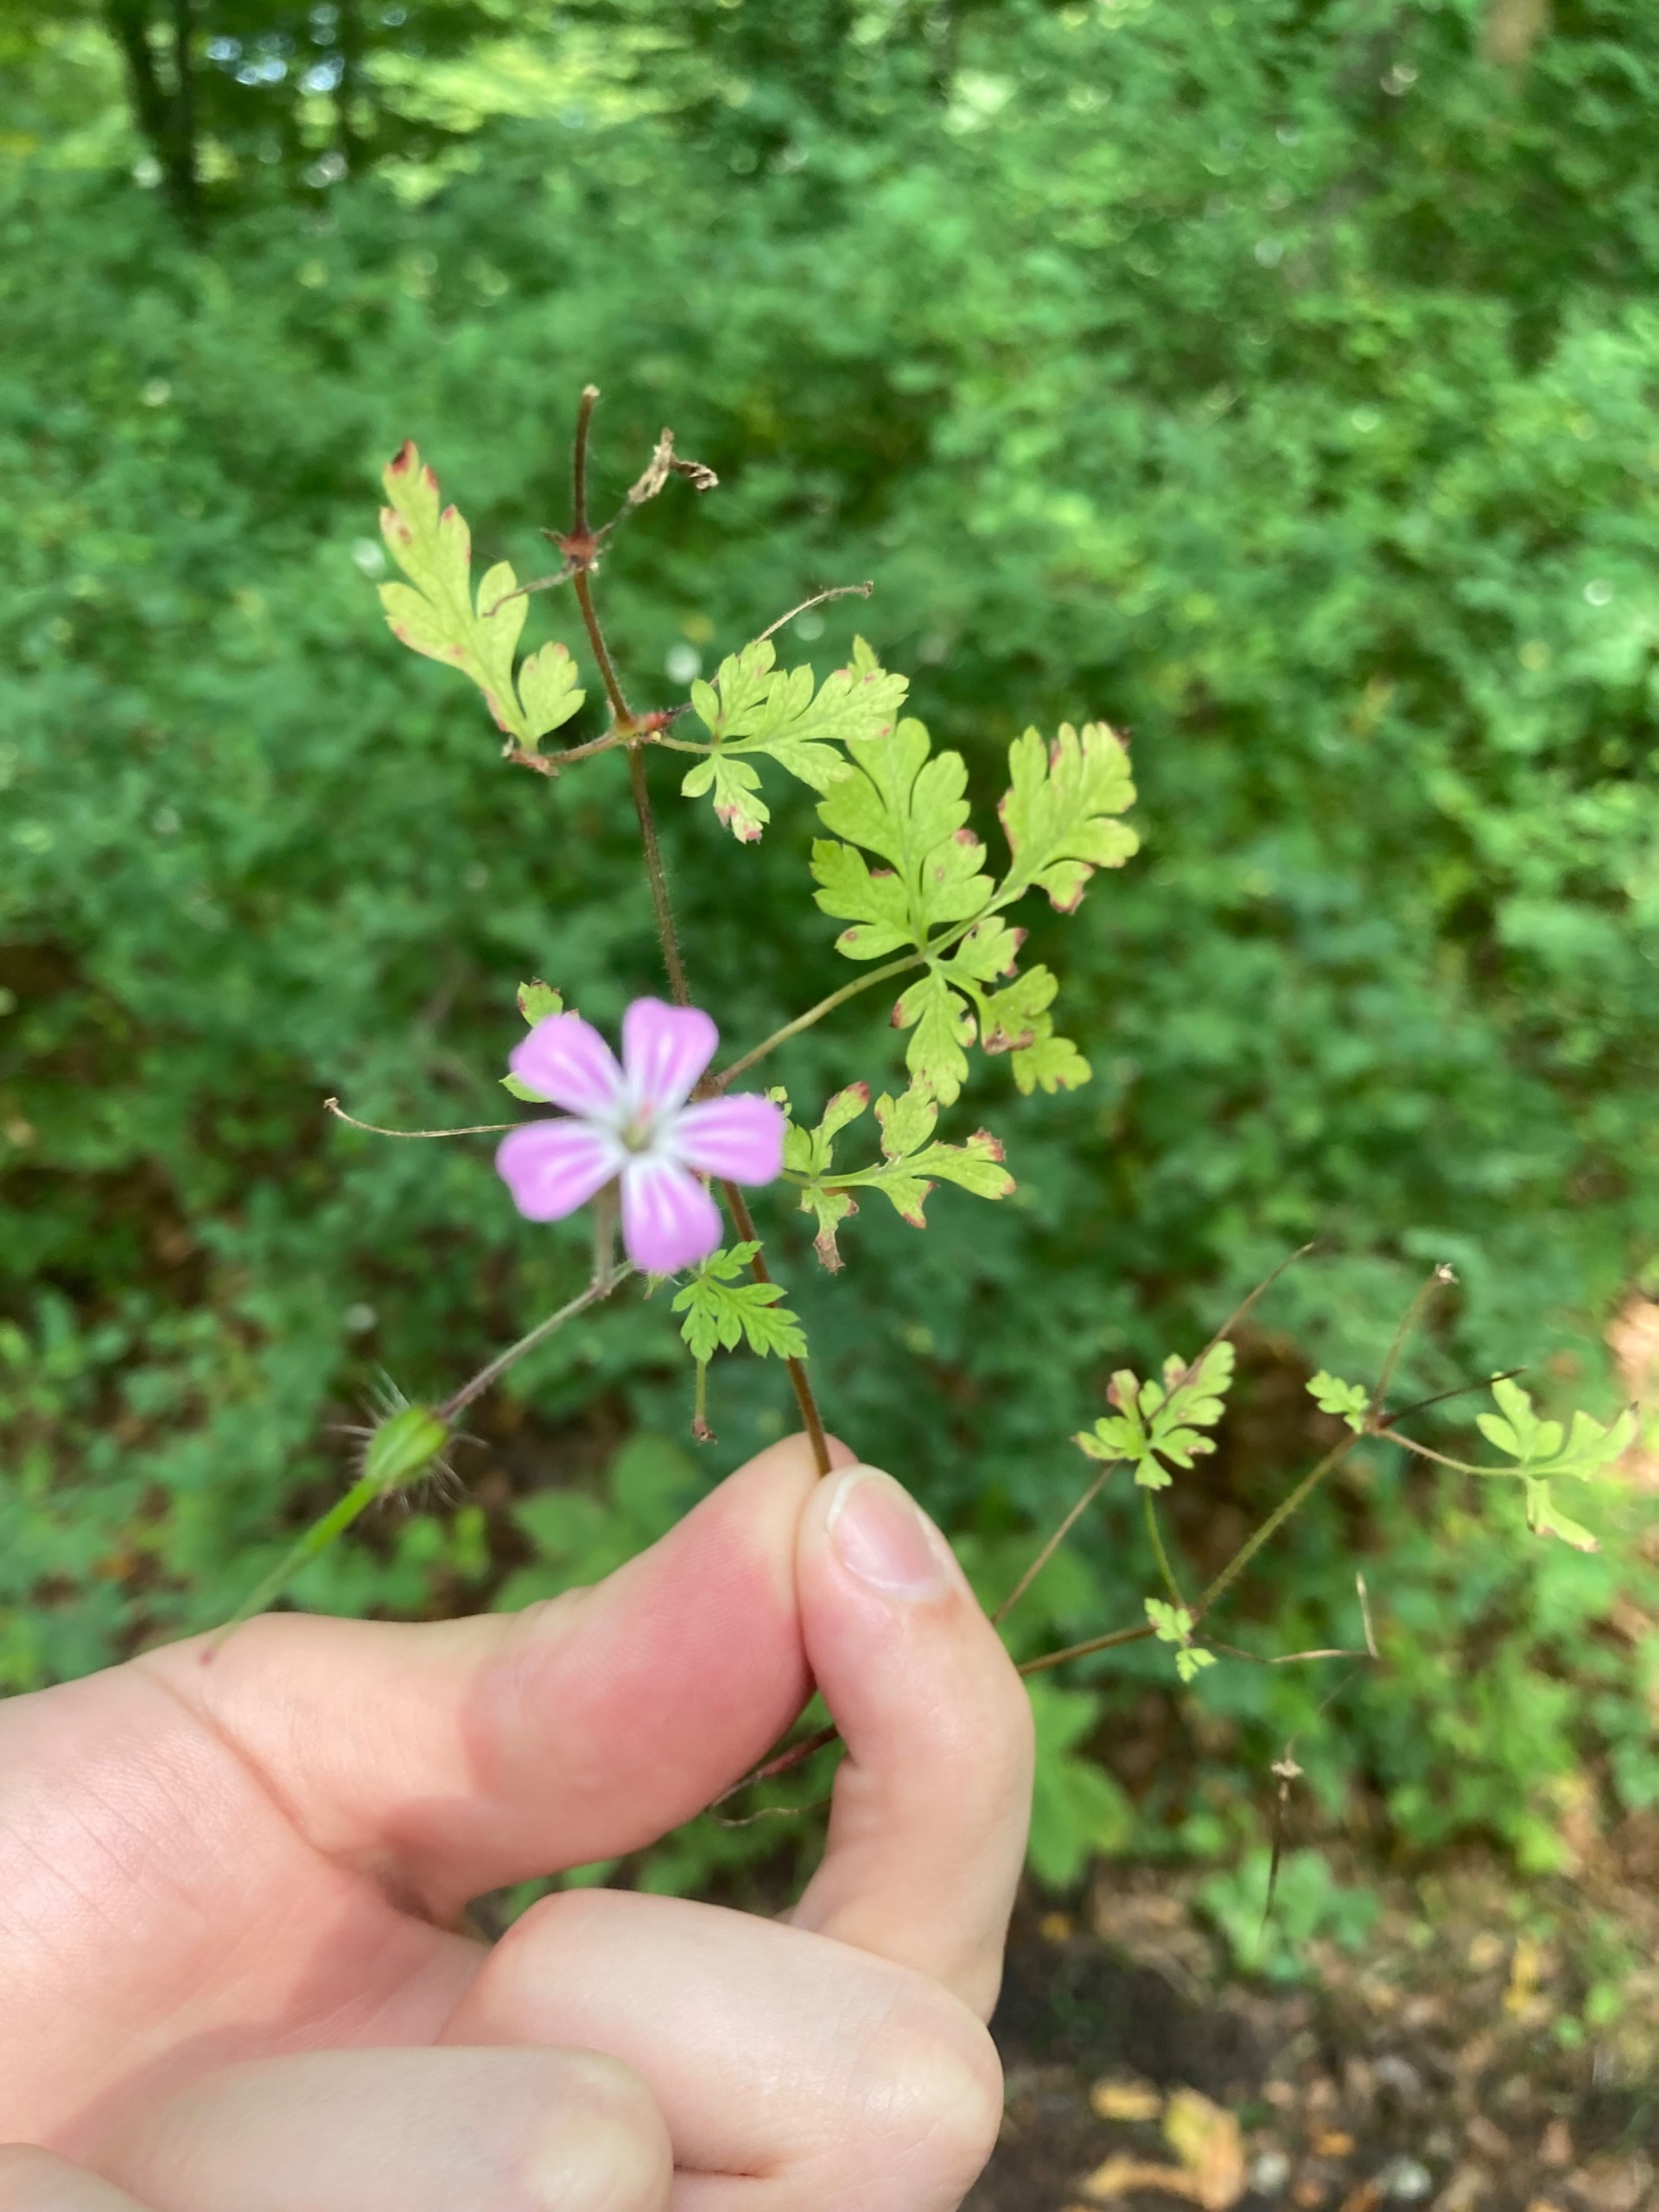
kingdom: Plantae
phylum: Tracheophyta
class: Magnoliopsida
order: Geraniales
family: Geraniaceae
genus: Geranium
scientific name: Geranium robertianum
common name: Stinkende storkenæb
